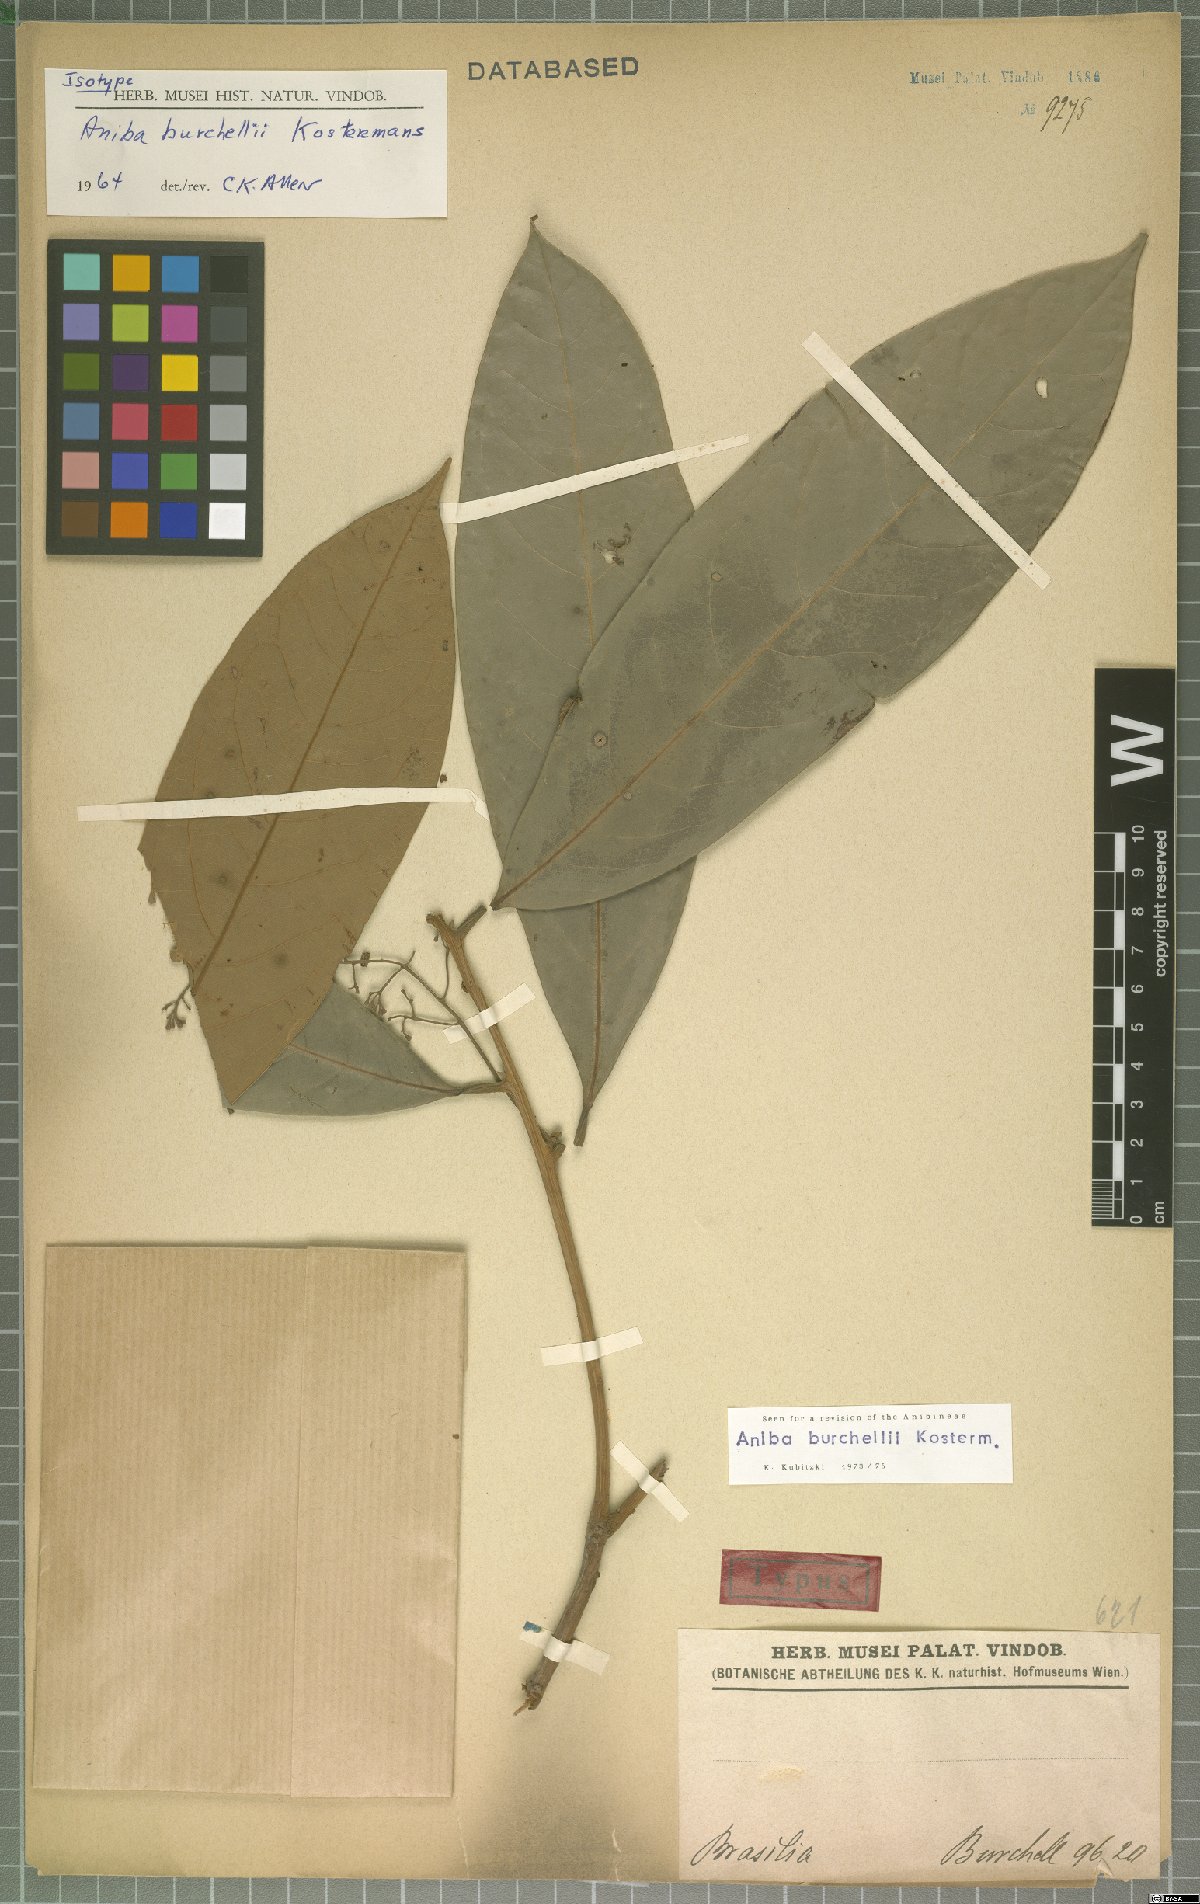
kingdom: Plantae
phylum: Tracheophyta
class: Magnoliopsida
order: Laurales
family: Lauraceae
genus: Aniba
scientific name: Aniba burchellii
